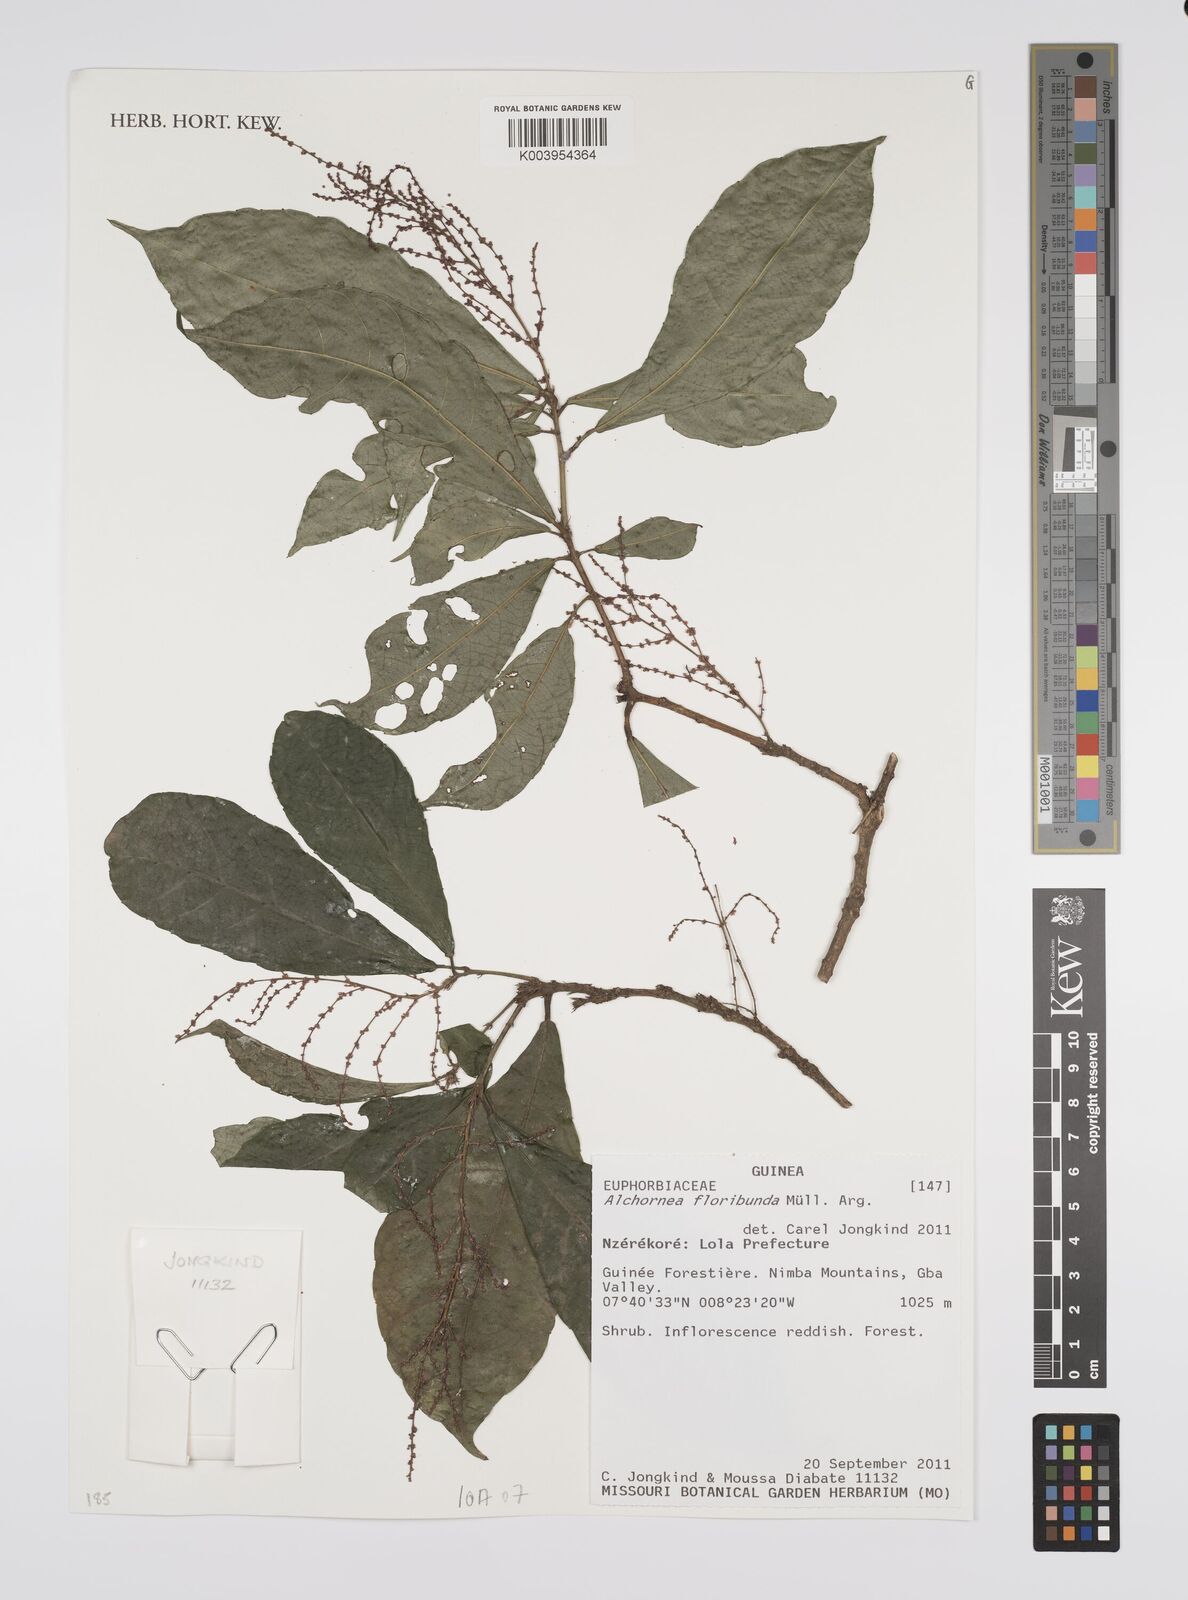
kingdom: Plantae
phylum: Tracheophyta
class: Magnoliopsida
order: Malpighiales
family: Euphorbiaceae
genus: Alchornea
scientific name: Alchornea floribunda
